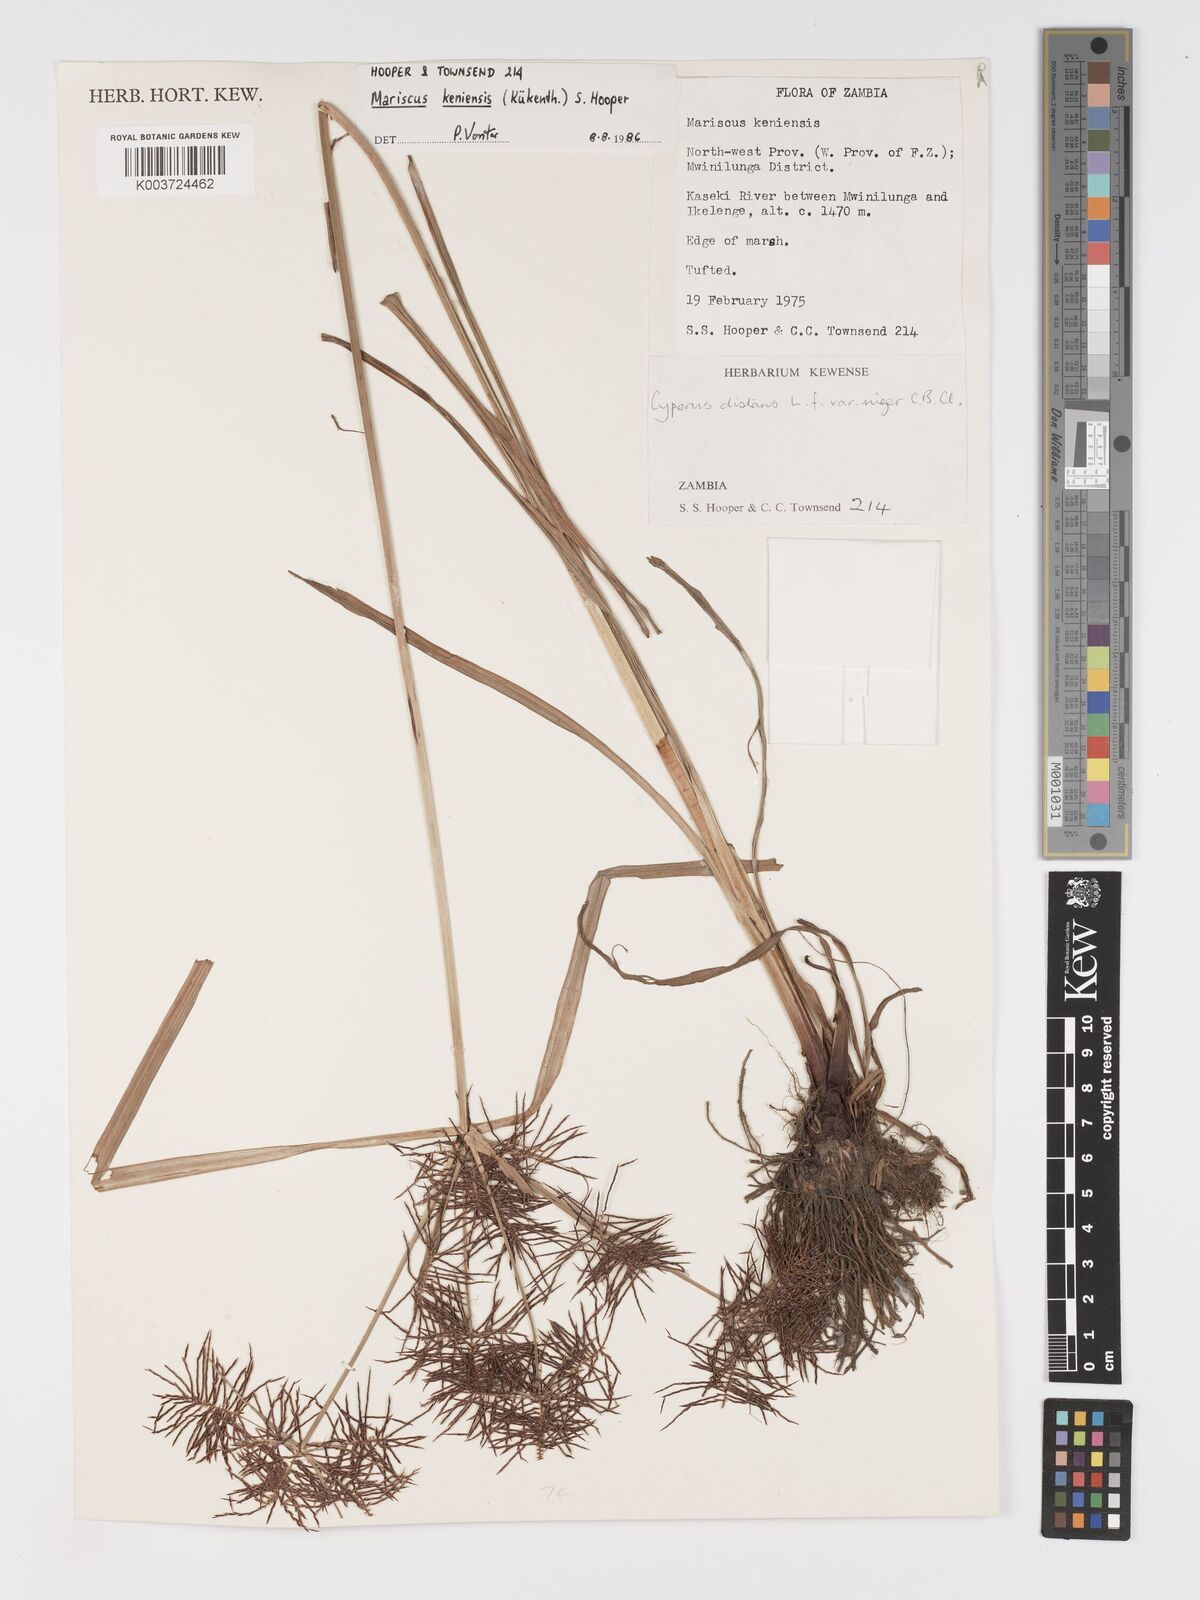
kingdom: Plantae
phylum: Tracheophyta
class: Liliopsida
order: Poales
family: Cyperaceae
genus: Cyperus
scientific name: Cyperus
